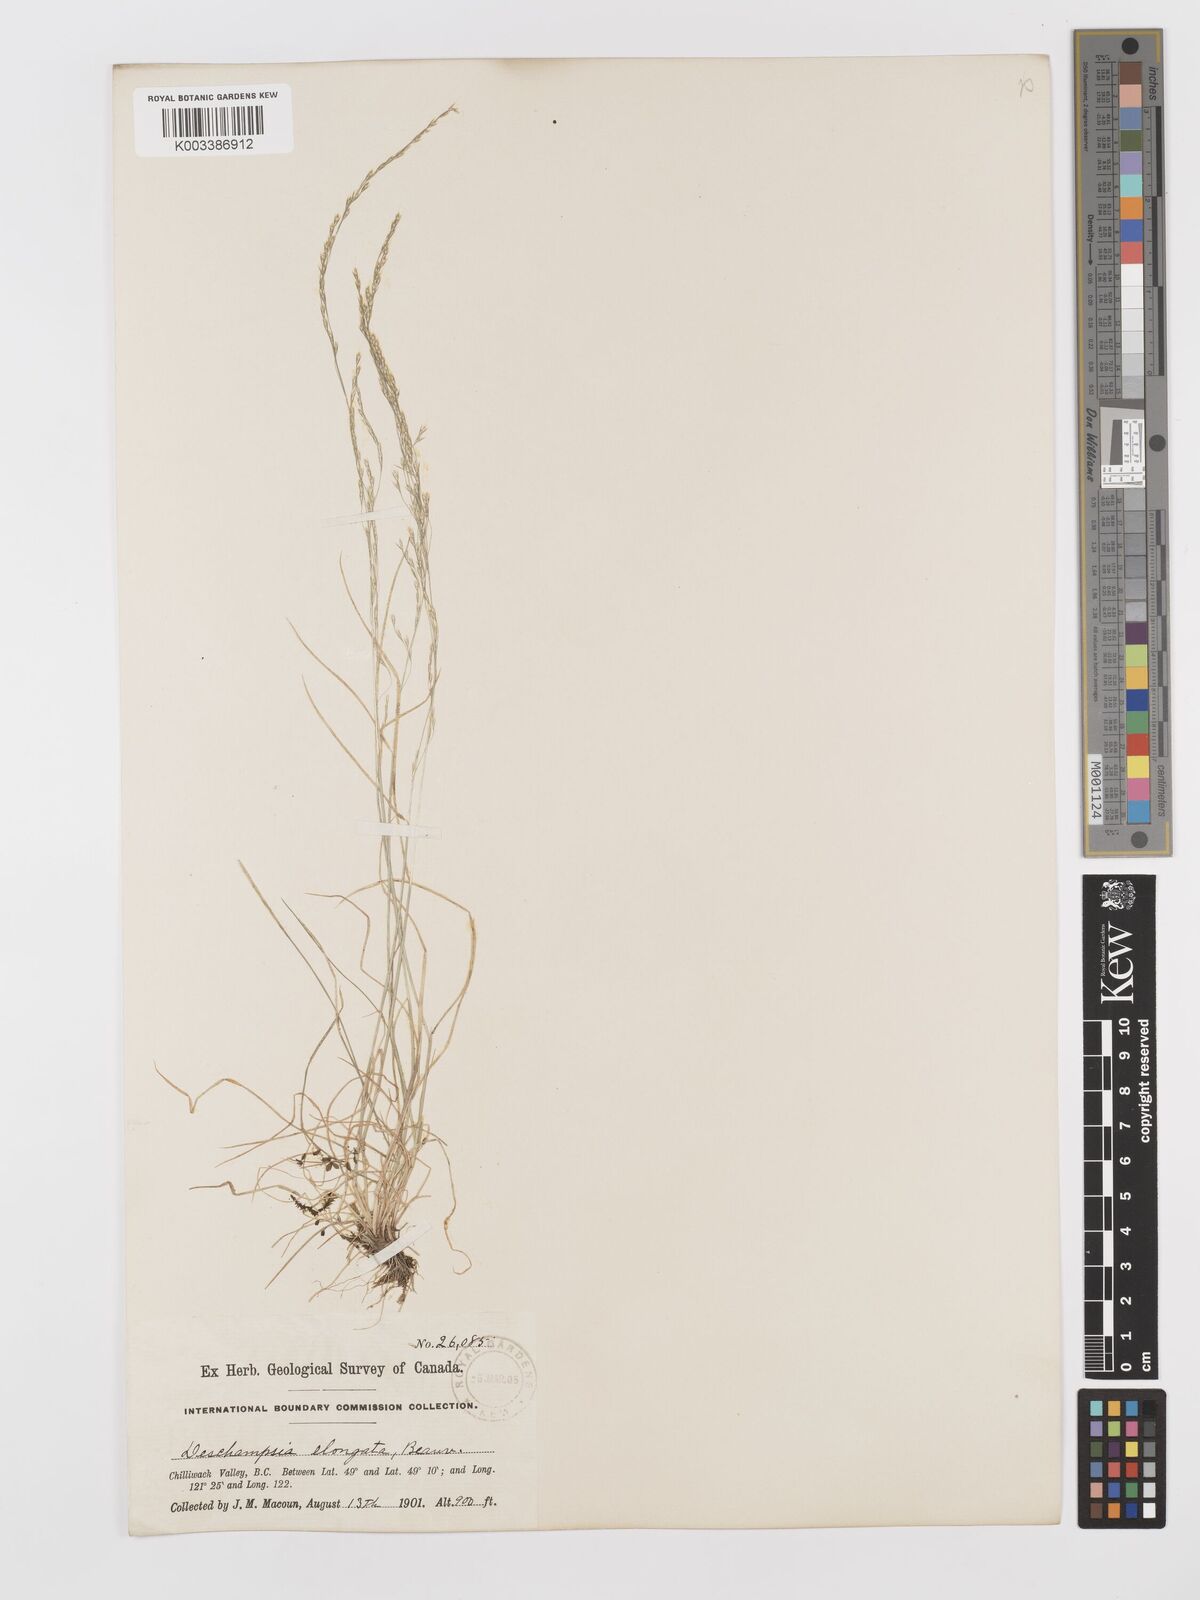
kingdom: Plantae
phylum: Tracheophyta
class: Liliopsida
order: Poales
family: Poaceae
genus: Deschampsia
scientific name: Deschampsia elongata
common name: Slender hairgrass
